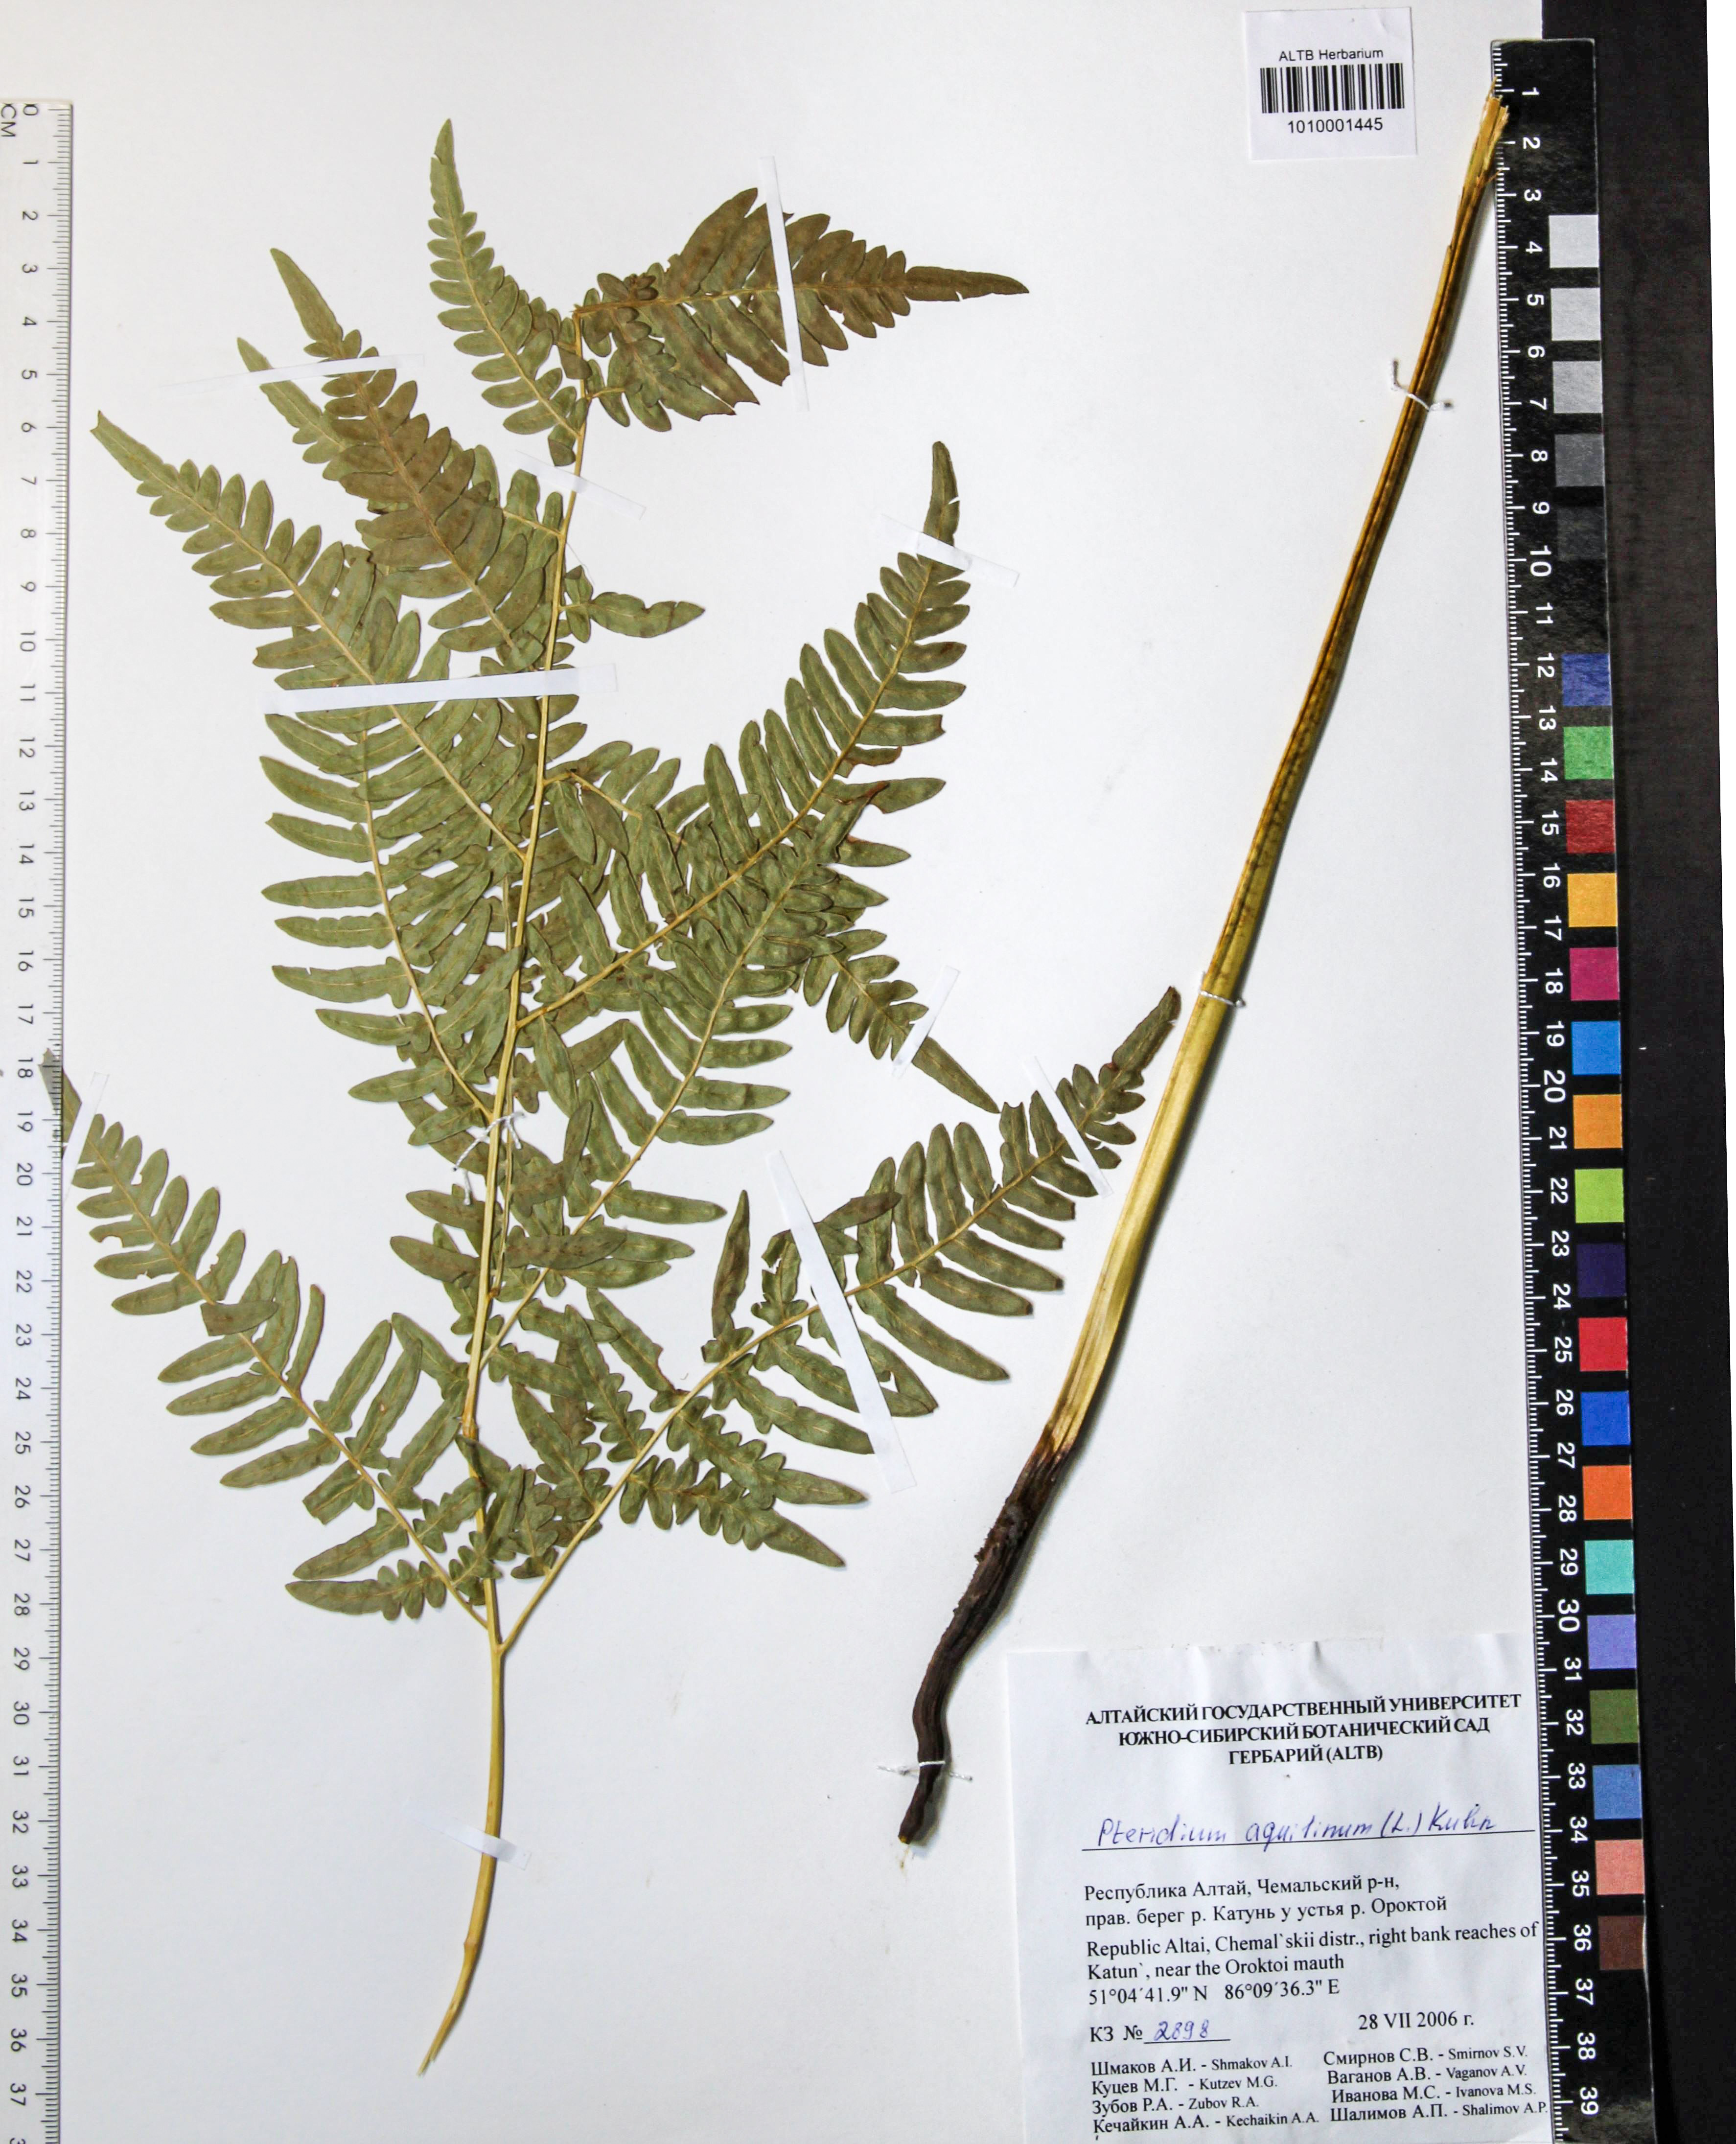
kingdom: Plantae
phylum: Tracheophyta
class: Polypodiopsida
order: Polypodiales
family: Dennstaedtiaceae
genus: Pteridium
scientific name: Pteridium aquilinum
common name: Bracken
